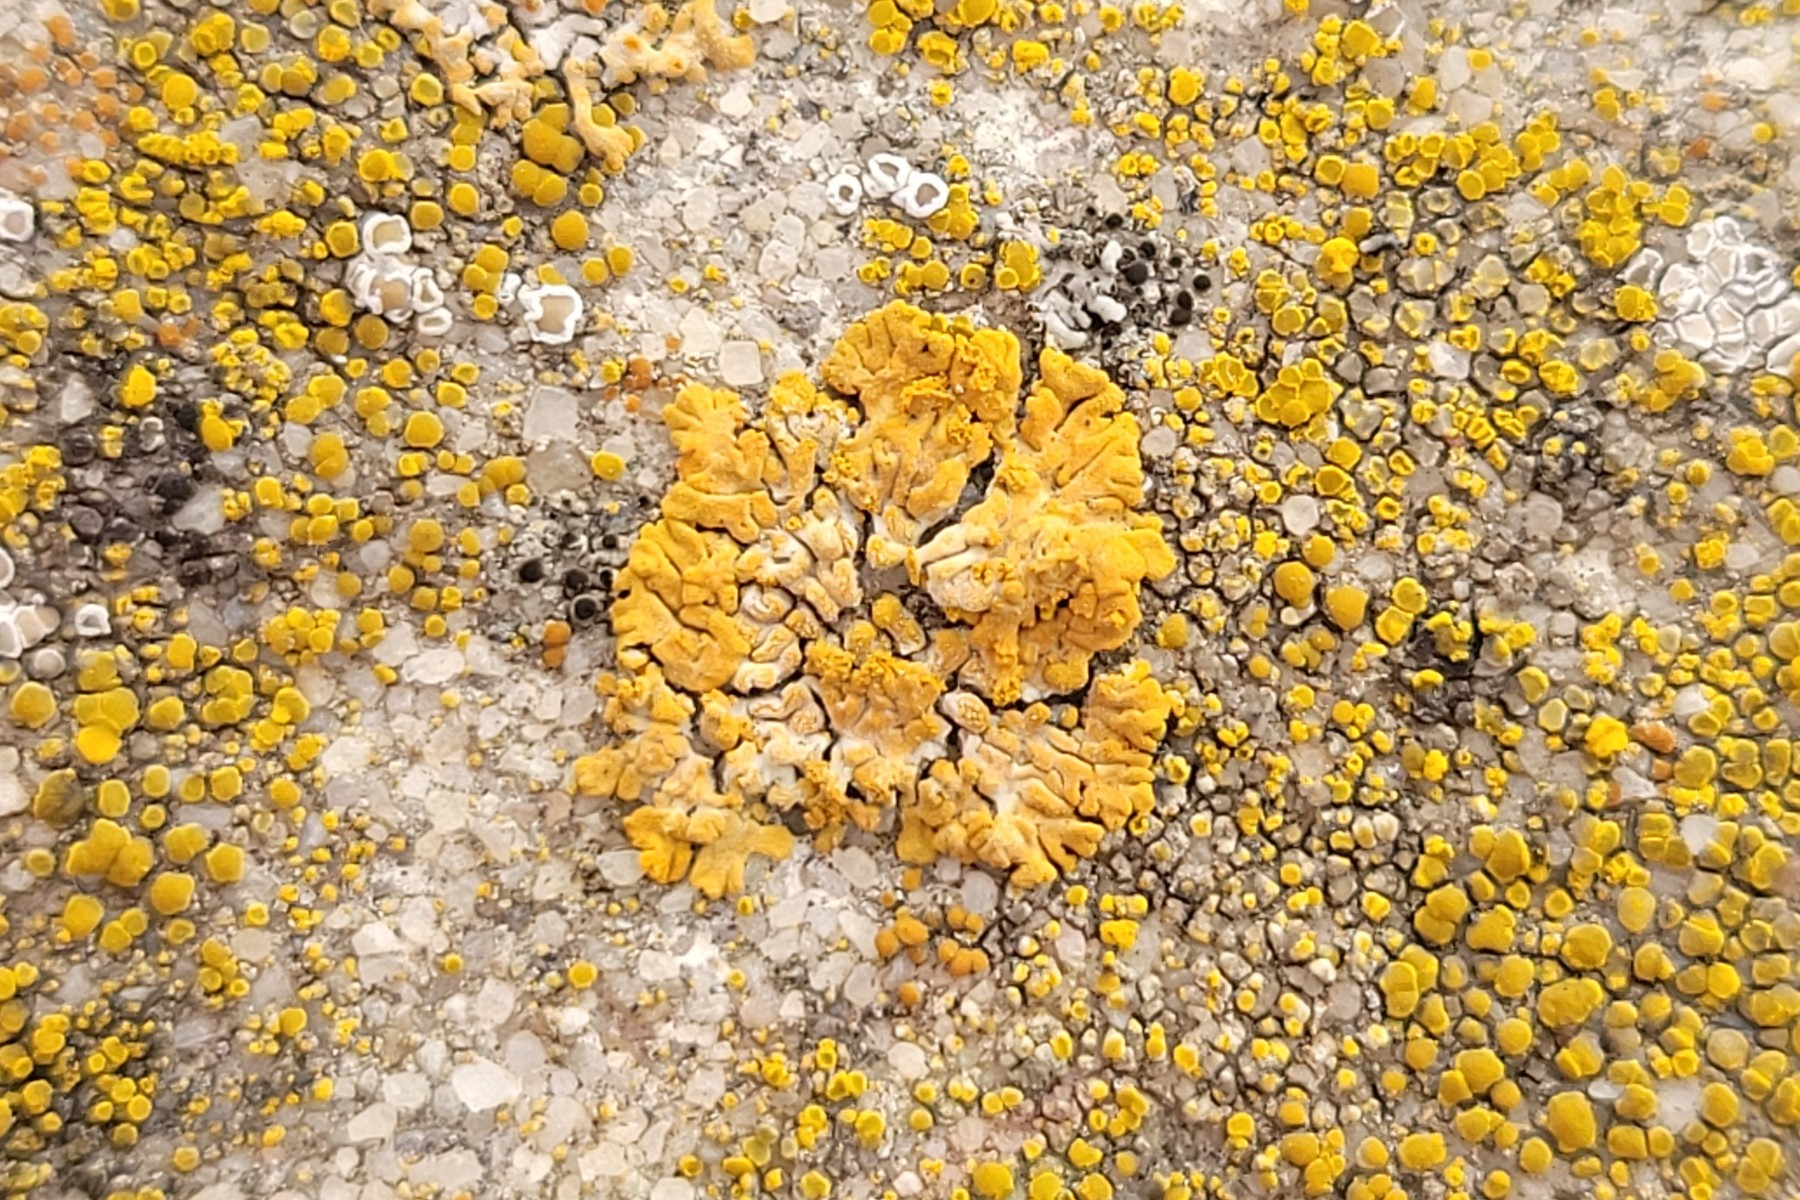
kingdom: Fungi
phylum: Ascomycota
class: Lecanoromycetes
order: Teloschistales
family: Teloschistaceae
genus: Calogaya
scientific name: Calogaya decipiens
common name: knudret orangelav
